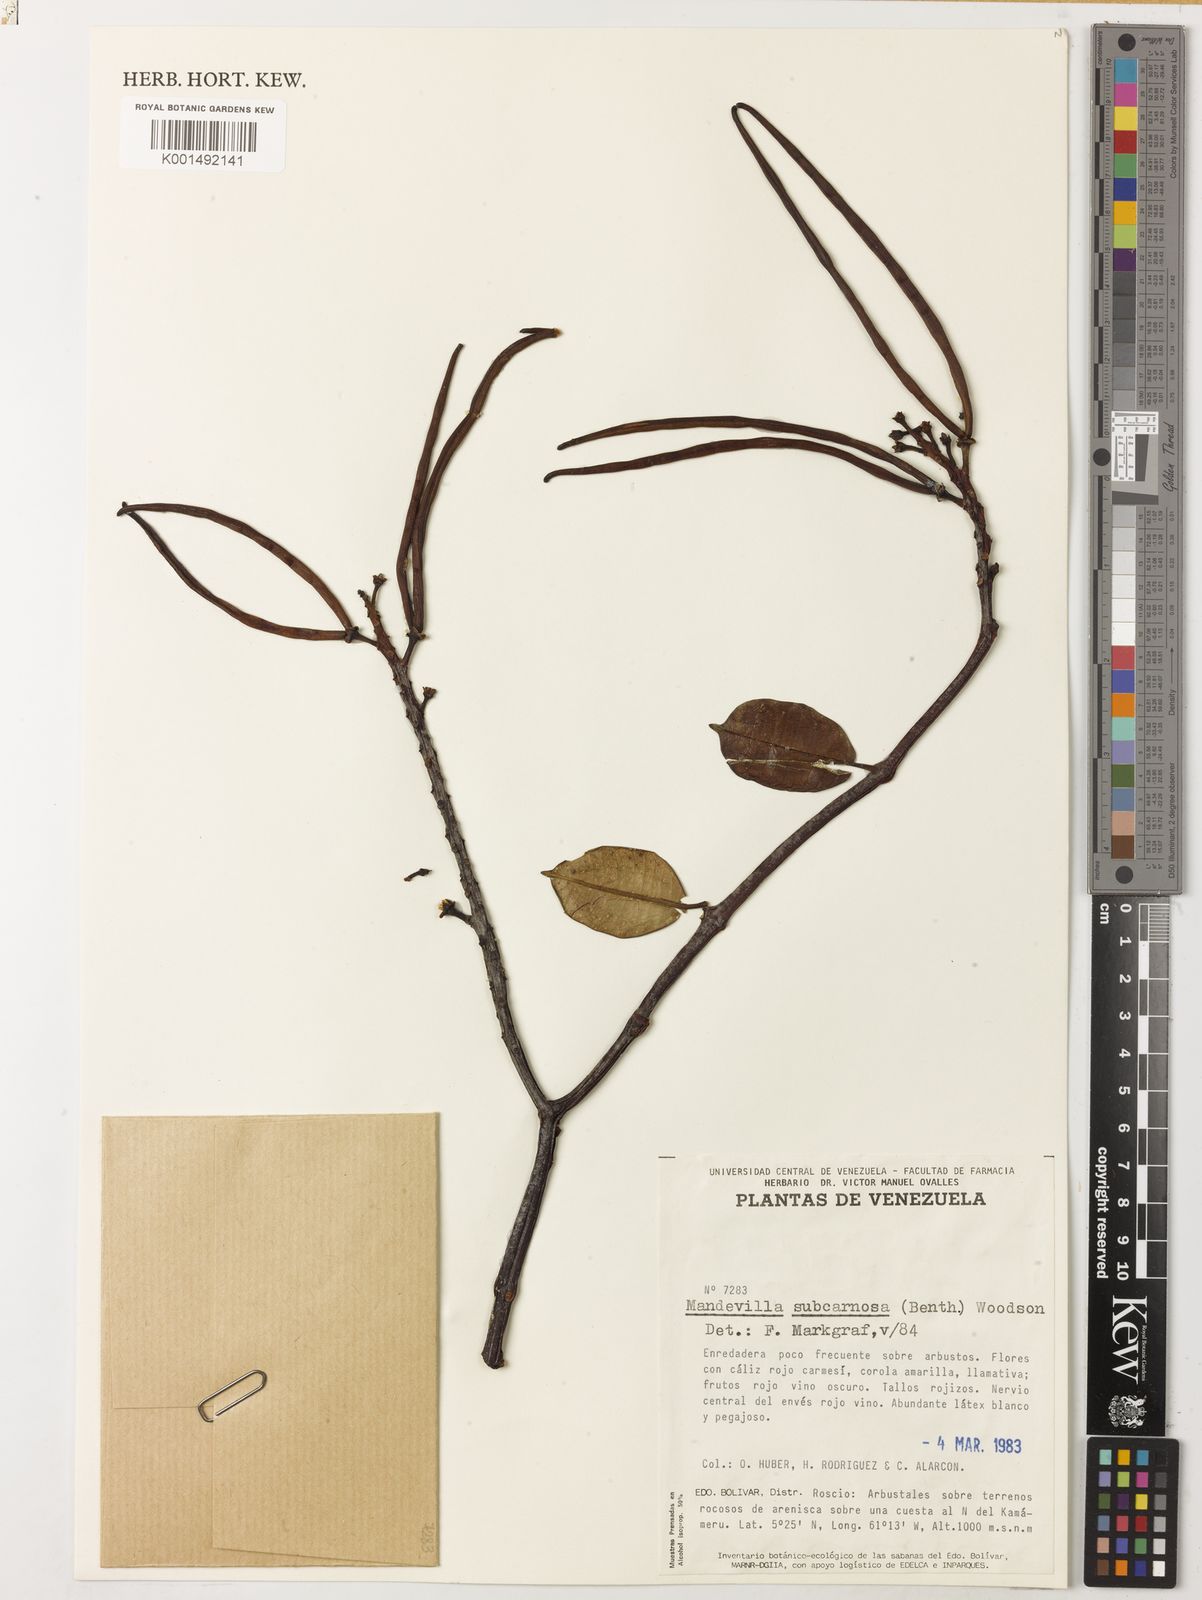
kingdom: Plantae
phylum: Tracheophyta
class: Magnoliopsida
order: Gentianales
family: Apocynaceae
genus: Mandevilla
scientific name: Mandevilla subcarnosa
